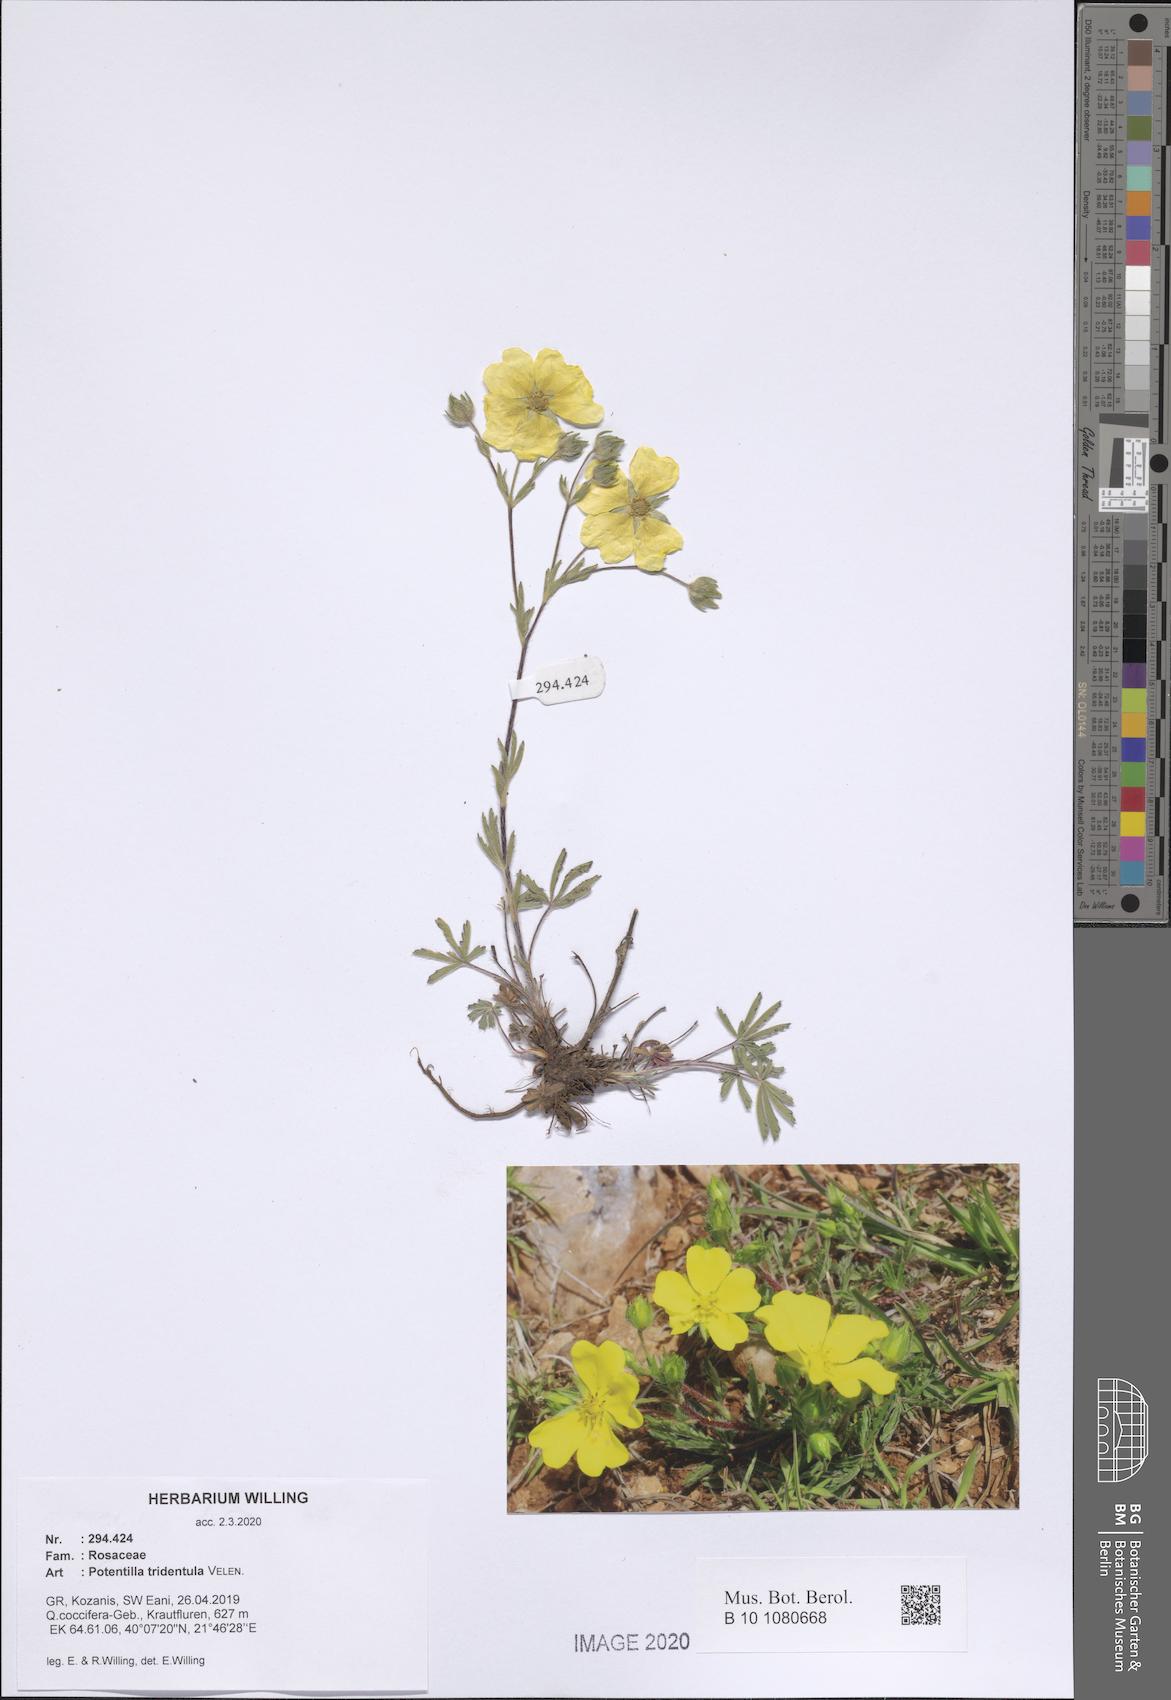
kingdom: Plantae
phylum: Tracheophyta
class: Magnoliopsida
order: Rosales
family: Rosaceae
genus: Potentilla
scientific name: Potentilla tridentula
